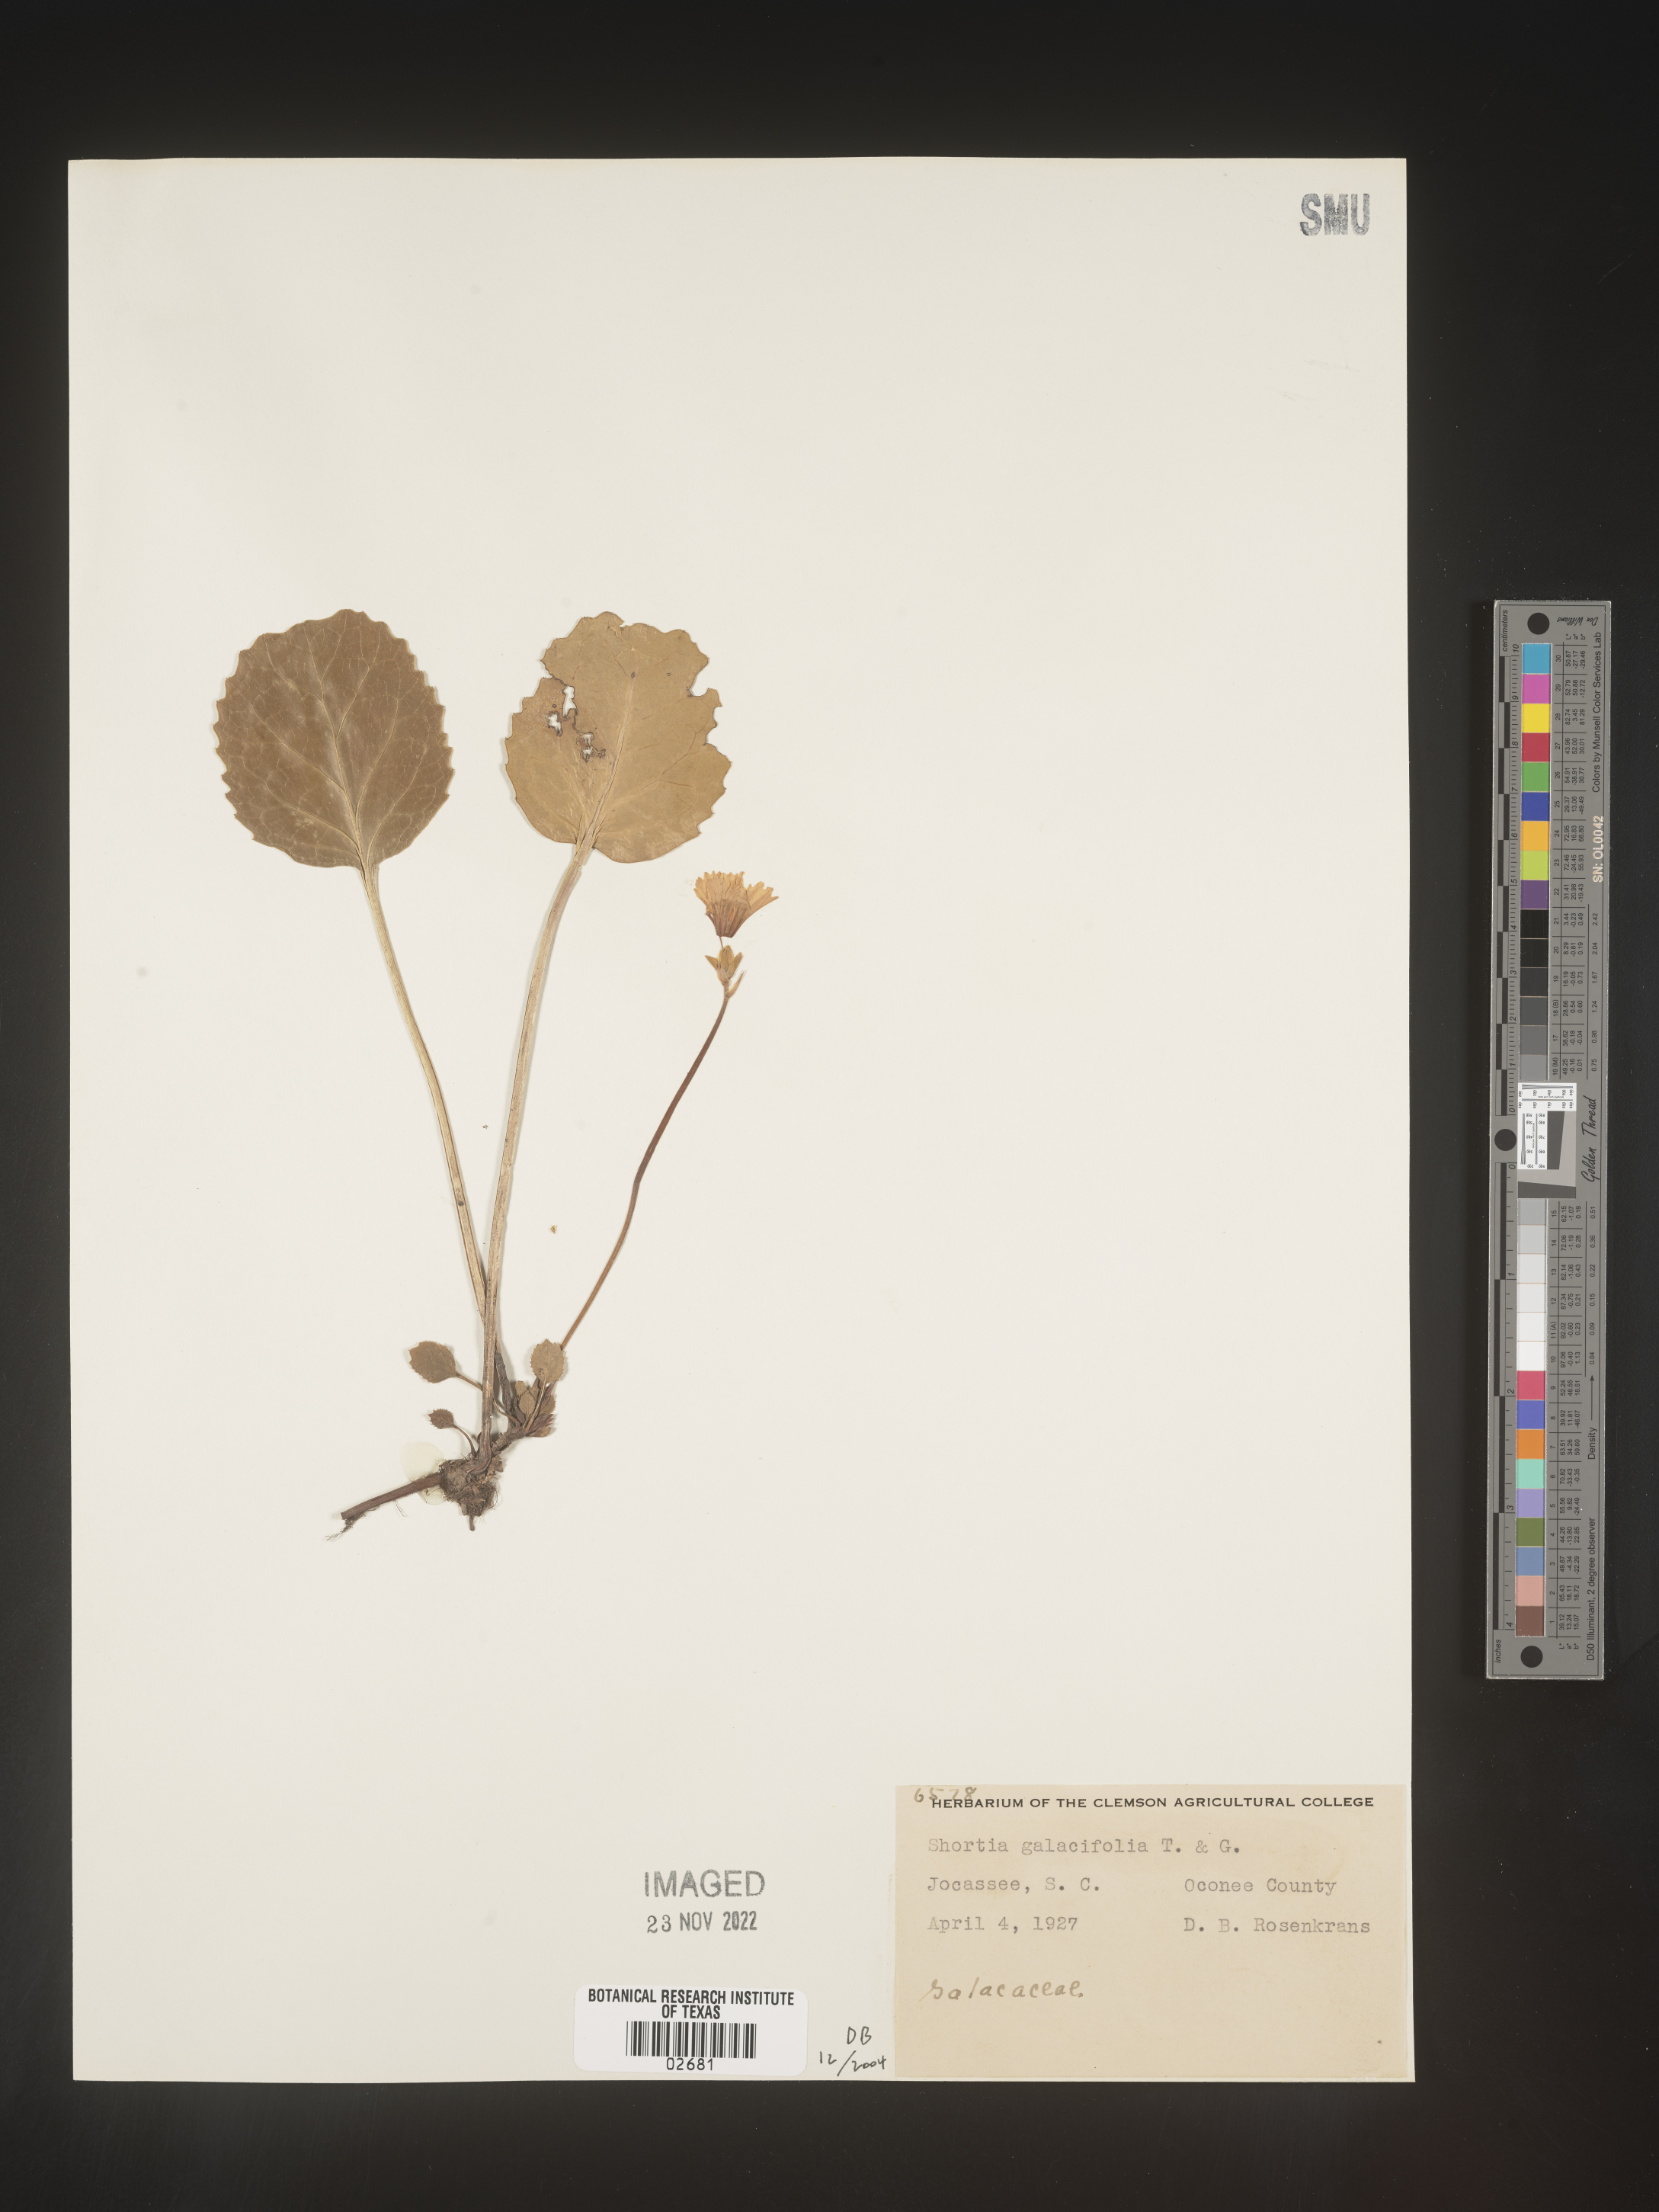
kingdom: Plantae
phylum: Tracheophyta
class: Magnoliopsida
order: Ericales
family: Diapensiaceae
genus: Shortia
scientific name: Shortia galacifolia
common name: Shortia
